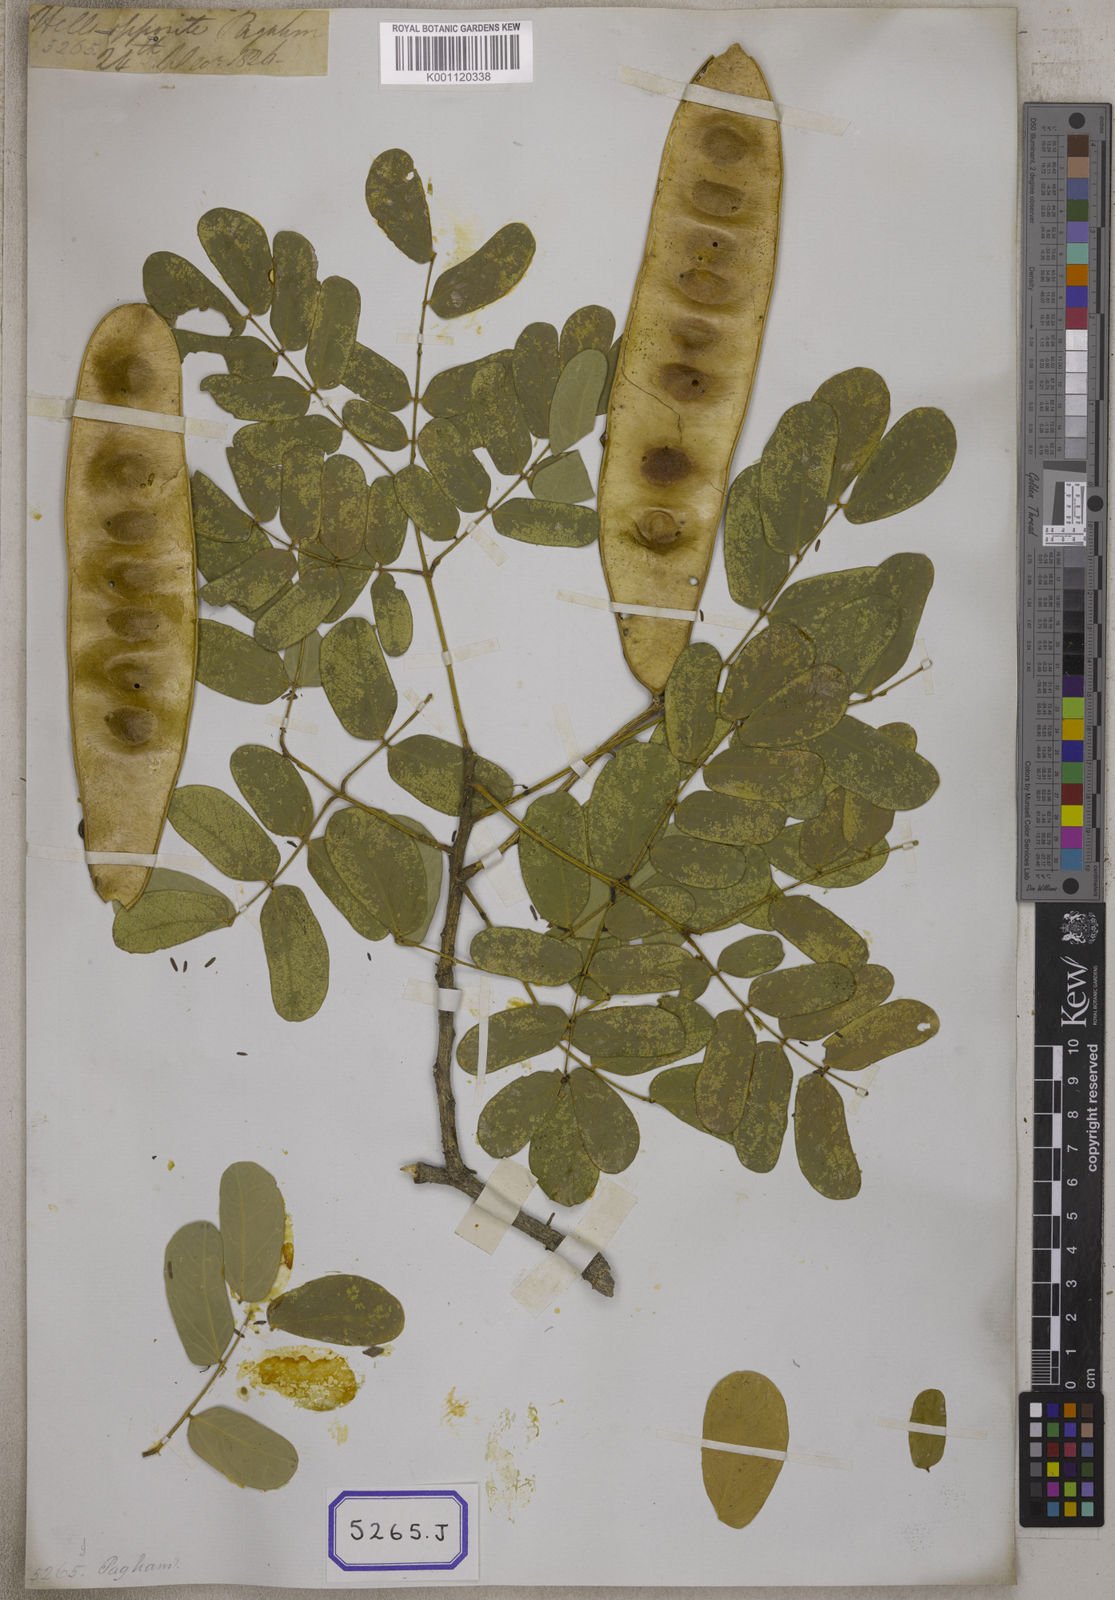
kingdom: Plantae
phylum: Tracheophyta
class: Magnoliopsida
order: Fabales
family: Fabaceae
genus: Acacia
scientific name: Acacia
